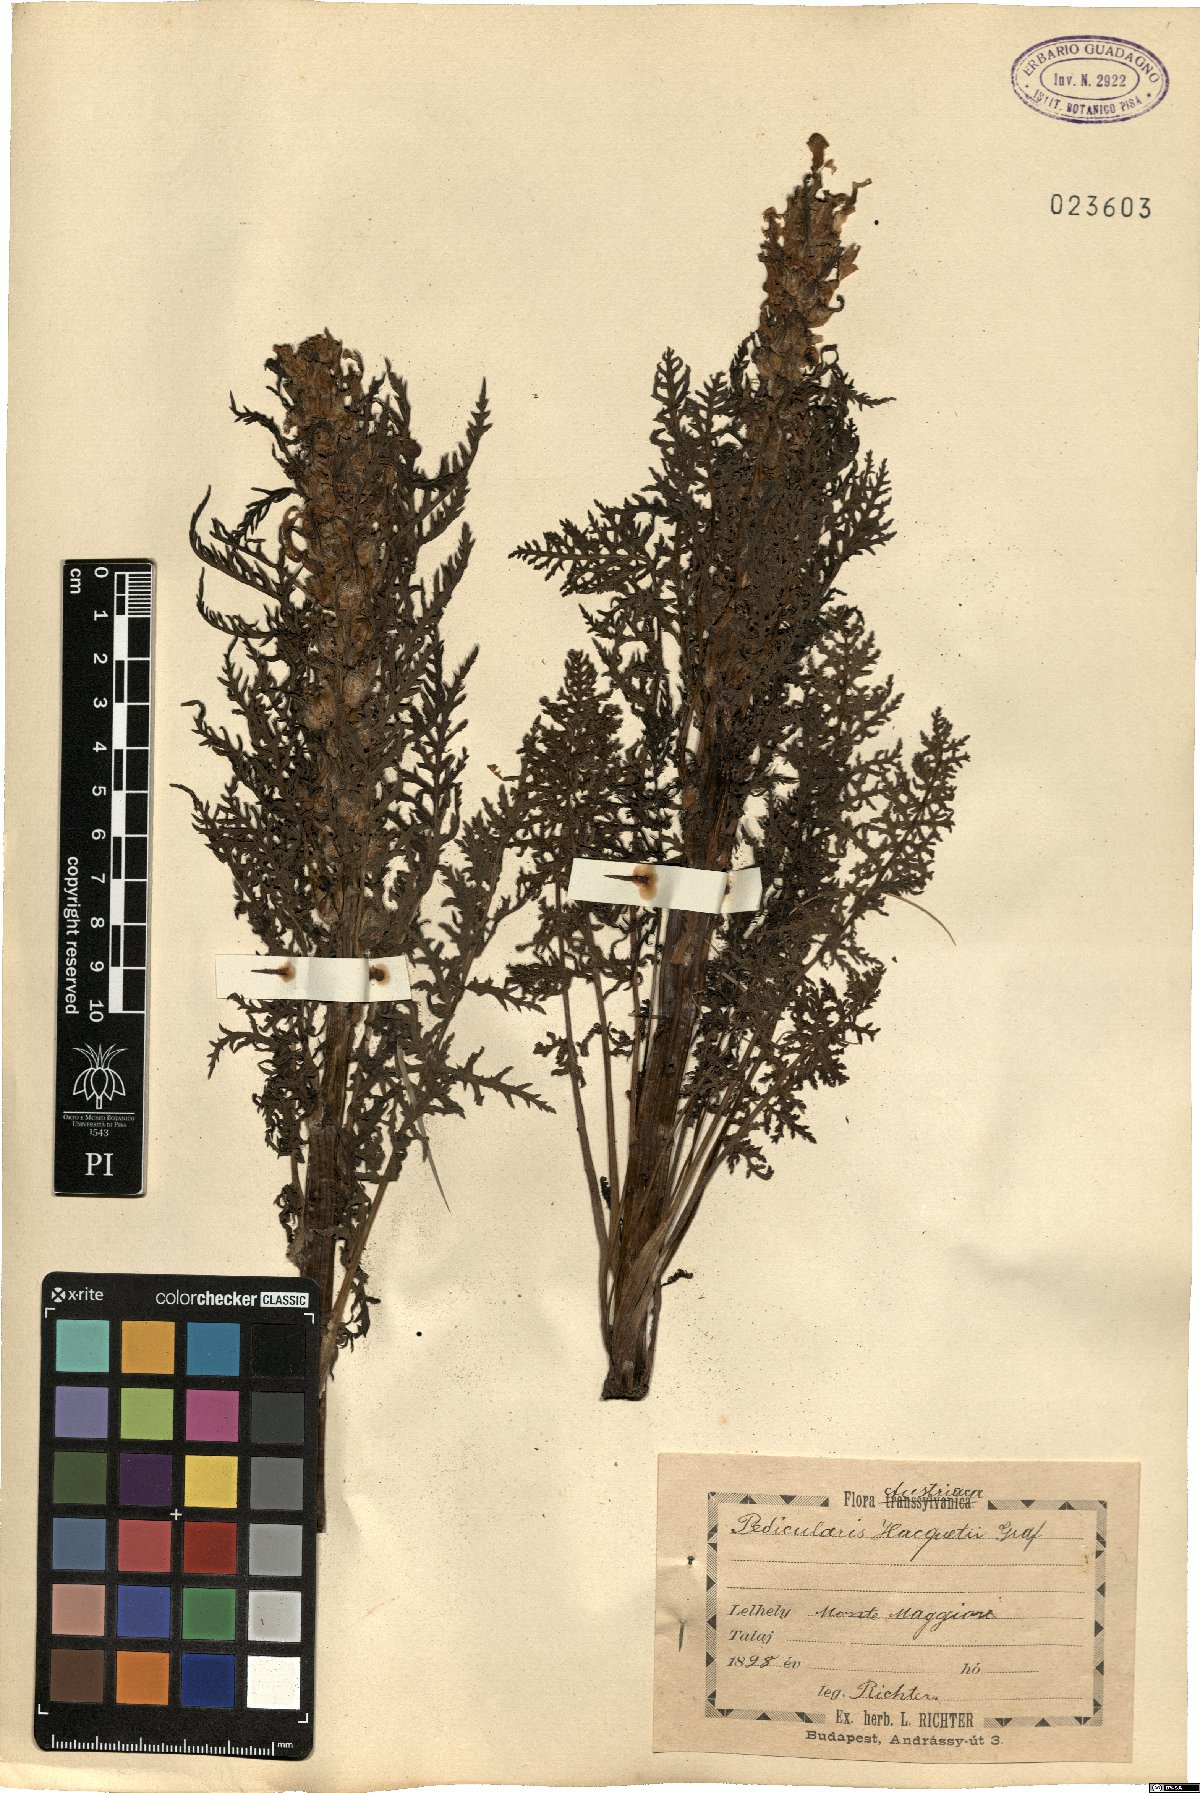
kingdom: Plantae
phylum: Tracheophyta
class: Magnoliopsida
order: Lamiales
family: Orobanchaceae
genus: Pedicularis
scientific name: Pedicularis hacquetii
